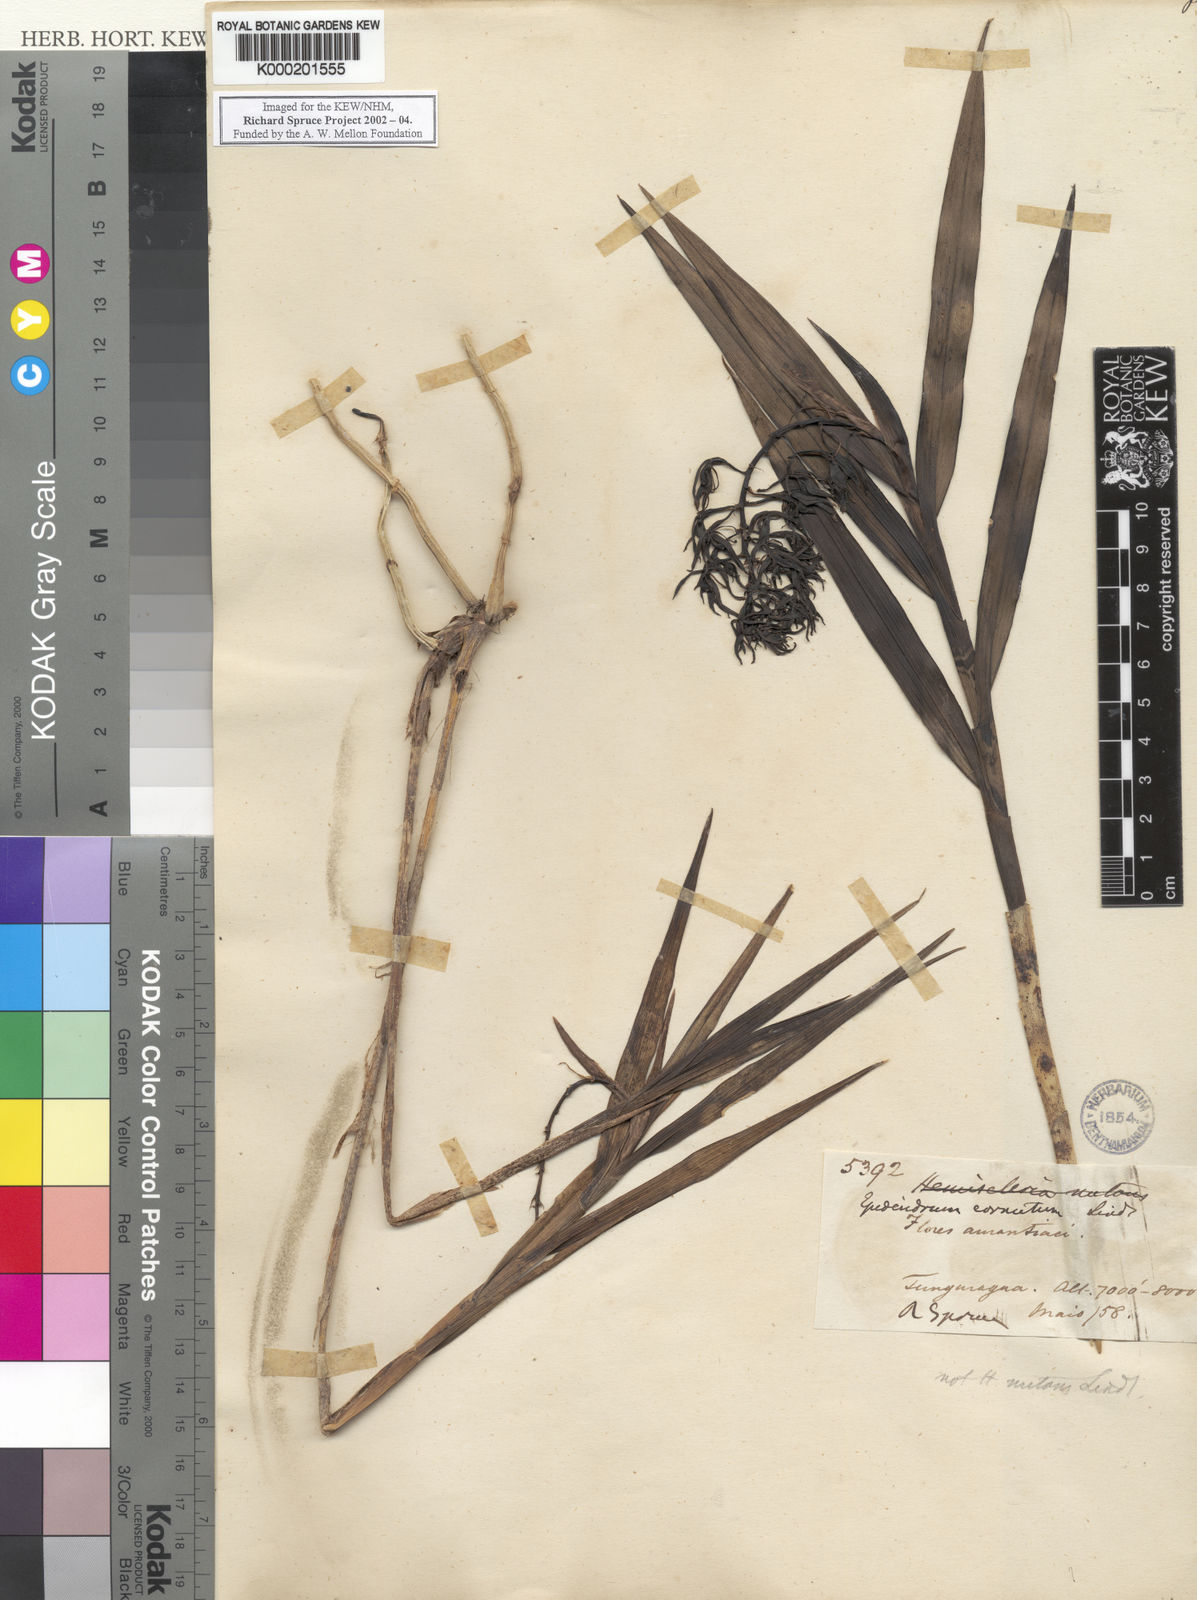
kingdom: Plantae
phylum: Tracheophyta
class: Liliopsida
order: Asparagales
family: Orchidaceae
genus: Epidendrum
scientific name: Epidendrum acuminatum
